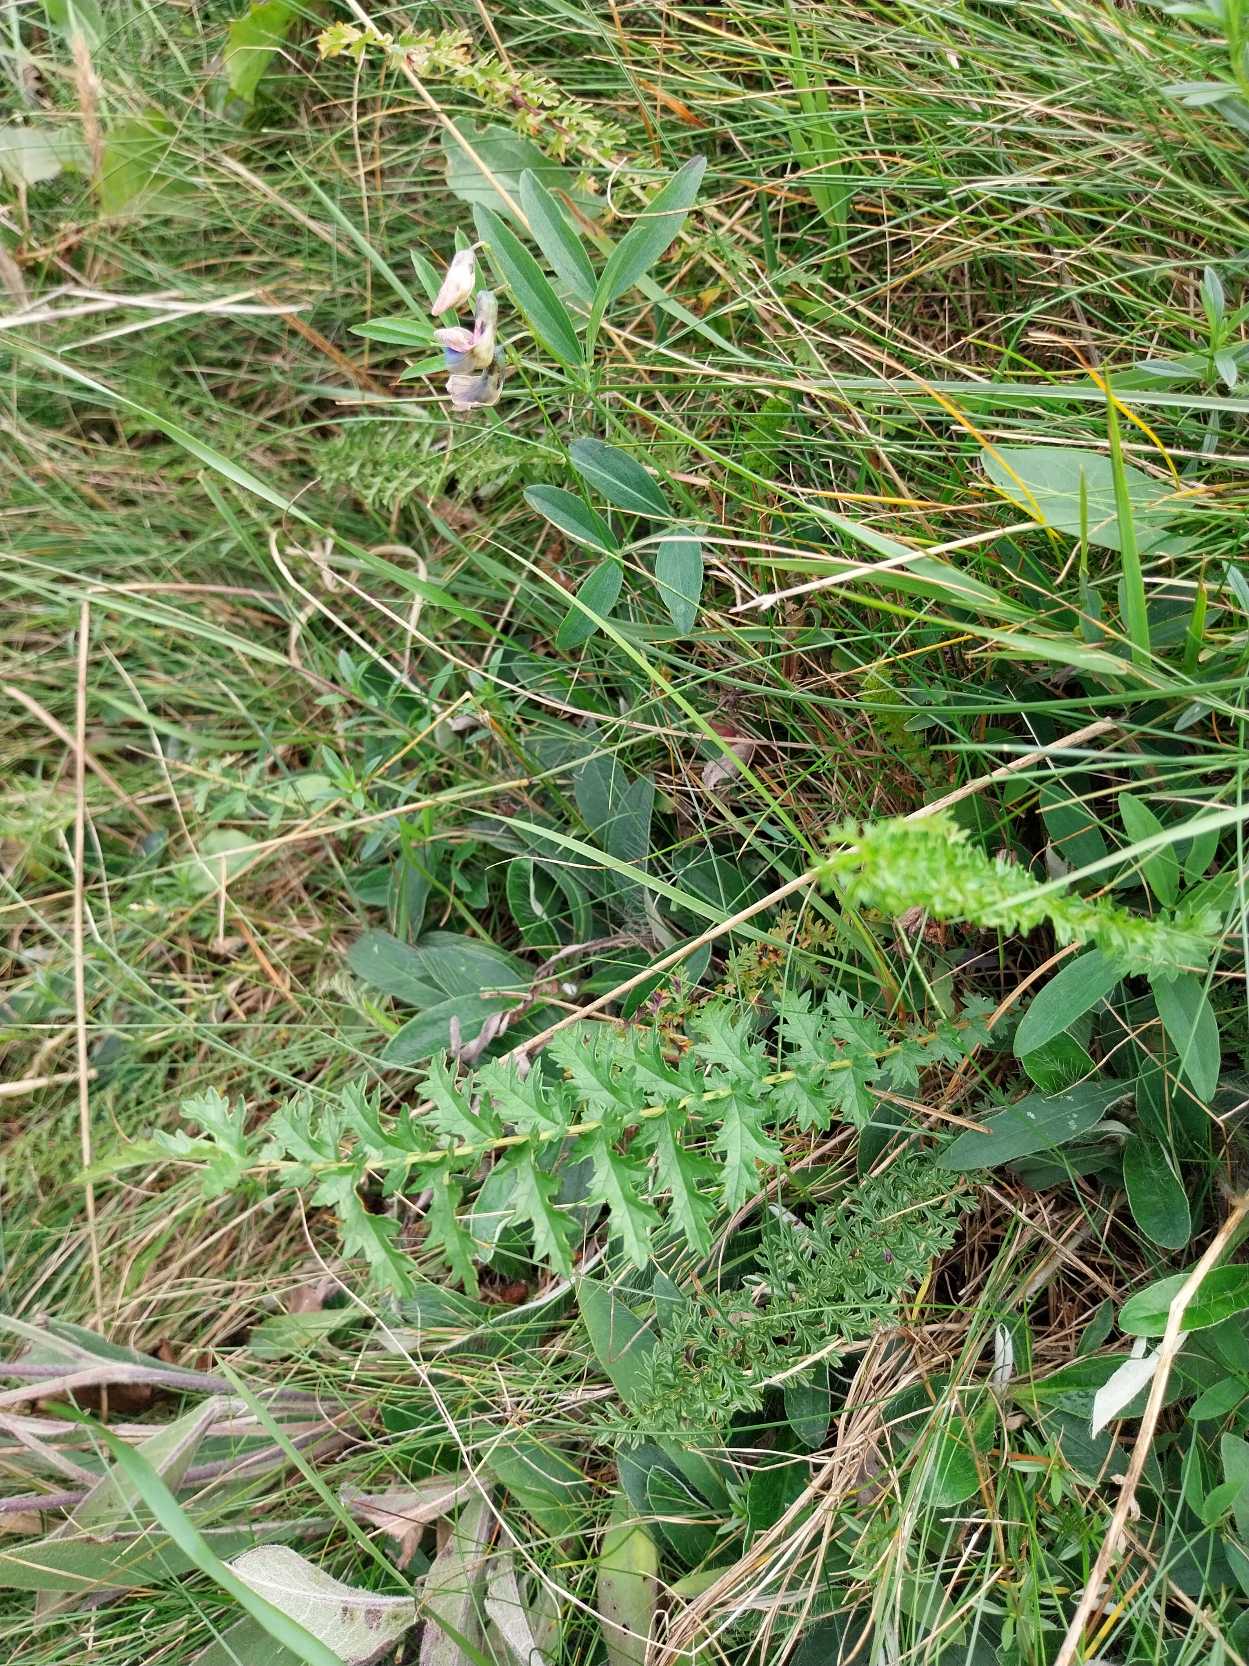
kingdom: Plantae
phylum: Tracheophyta
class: Magnoliopsida
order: Rosales
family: Rosaceae
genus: Filipendula
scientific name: Filipendula vulgaris
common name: Knoldet mjødurt
